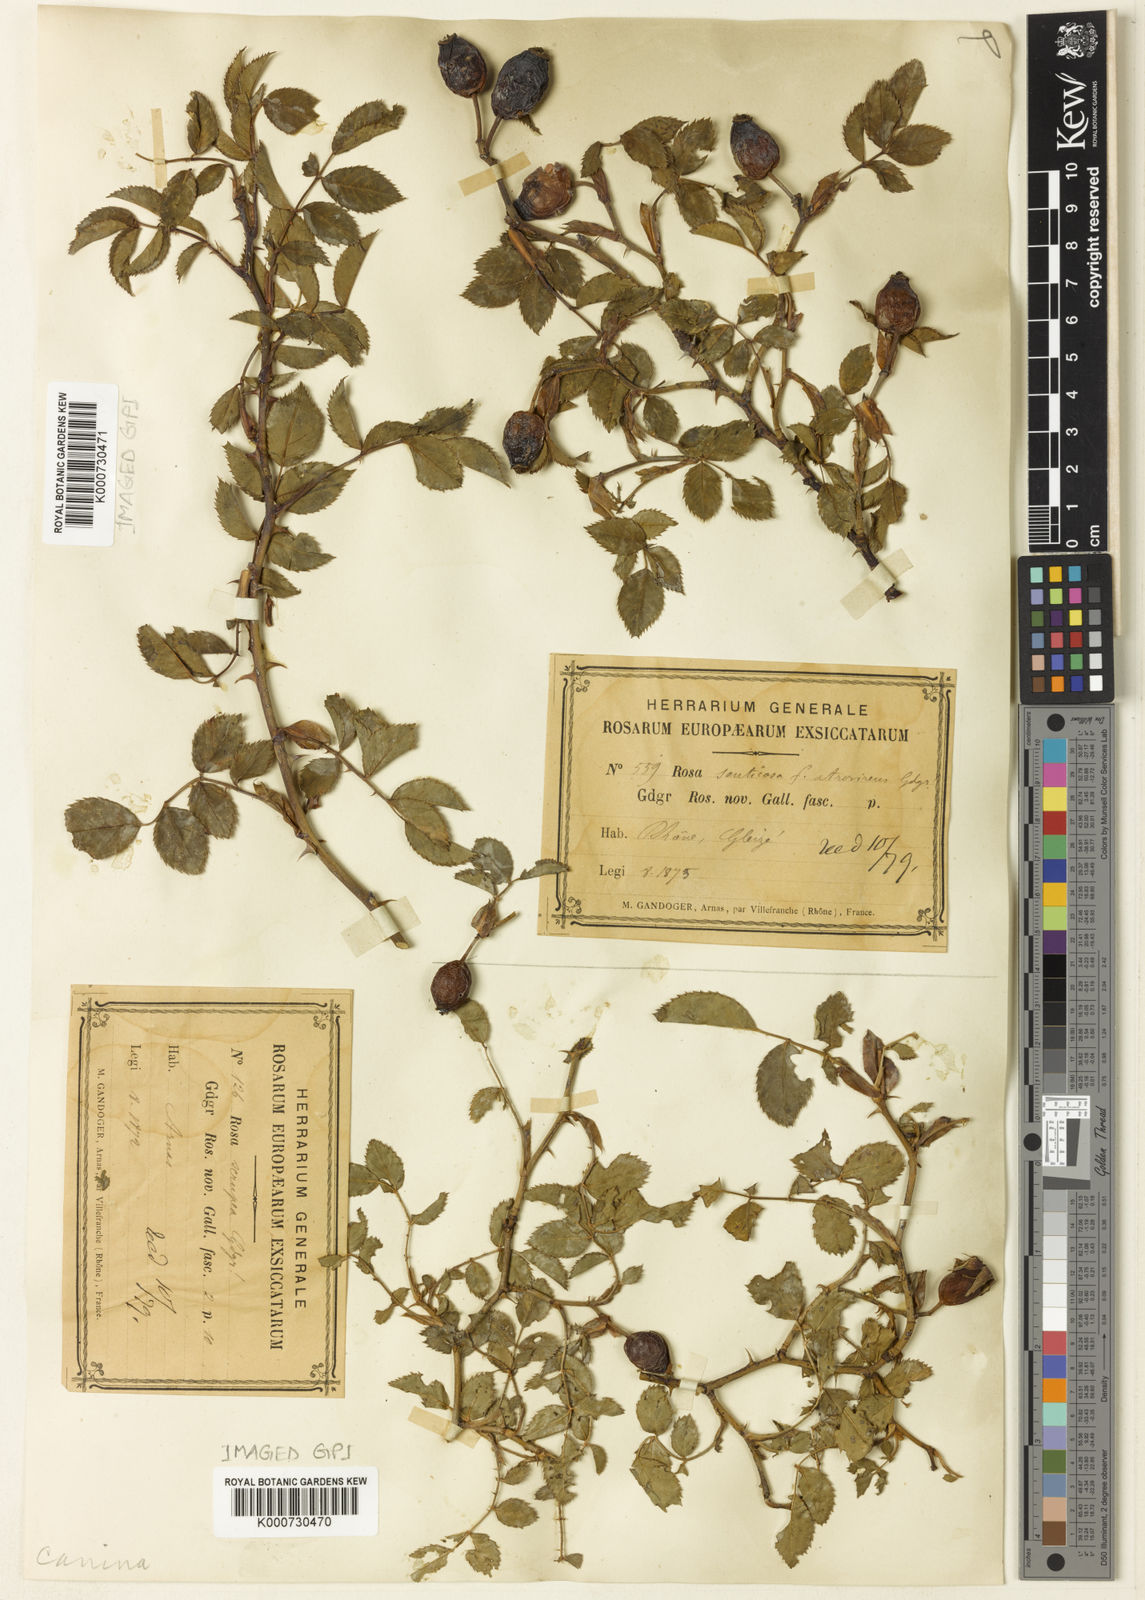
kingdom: Plantae
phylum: Tracheophyta
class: Magnoliopsida
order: Rosales
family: Rosaceae
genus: Rosa
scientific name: Rosa canina
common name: Dog rose
